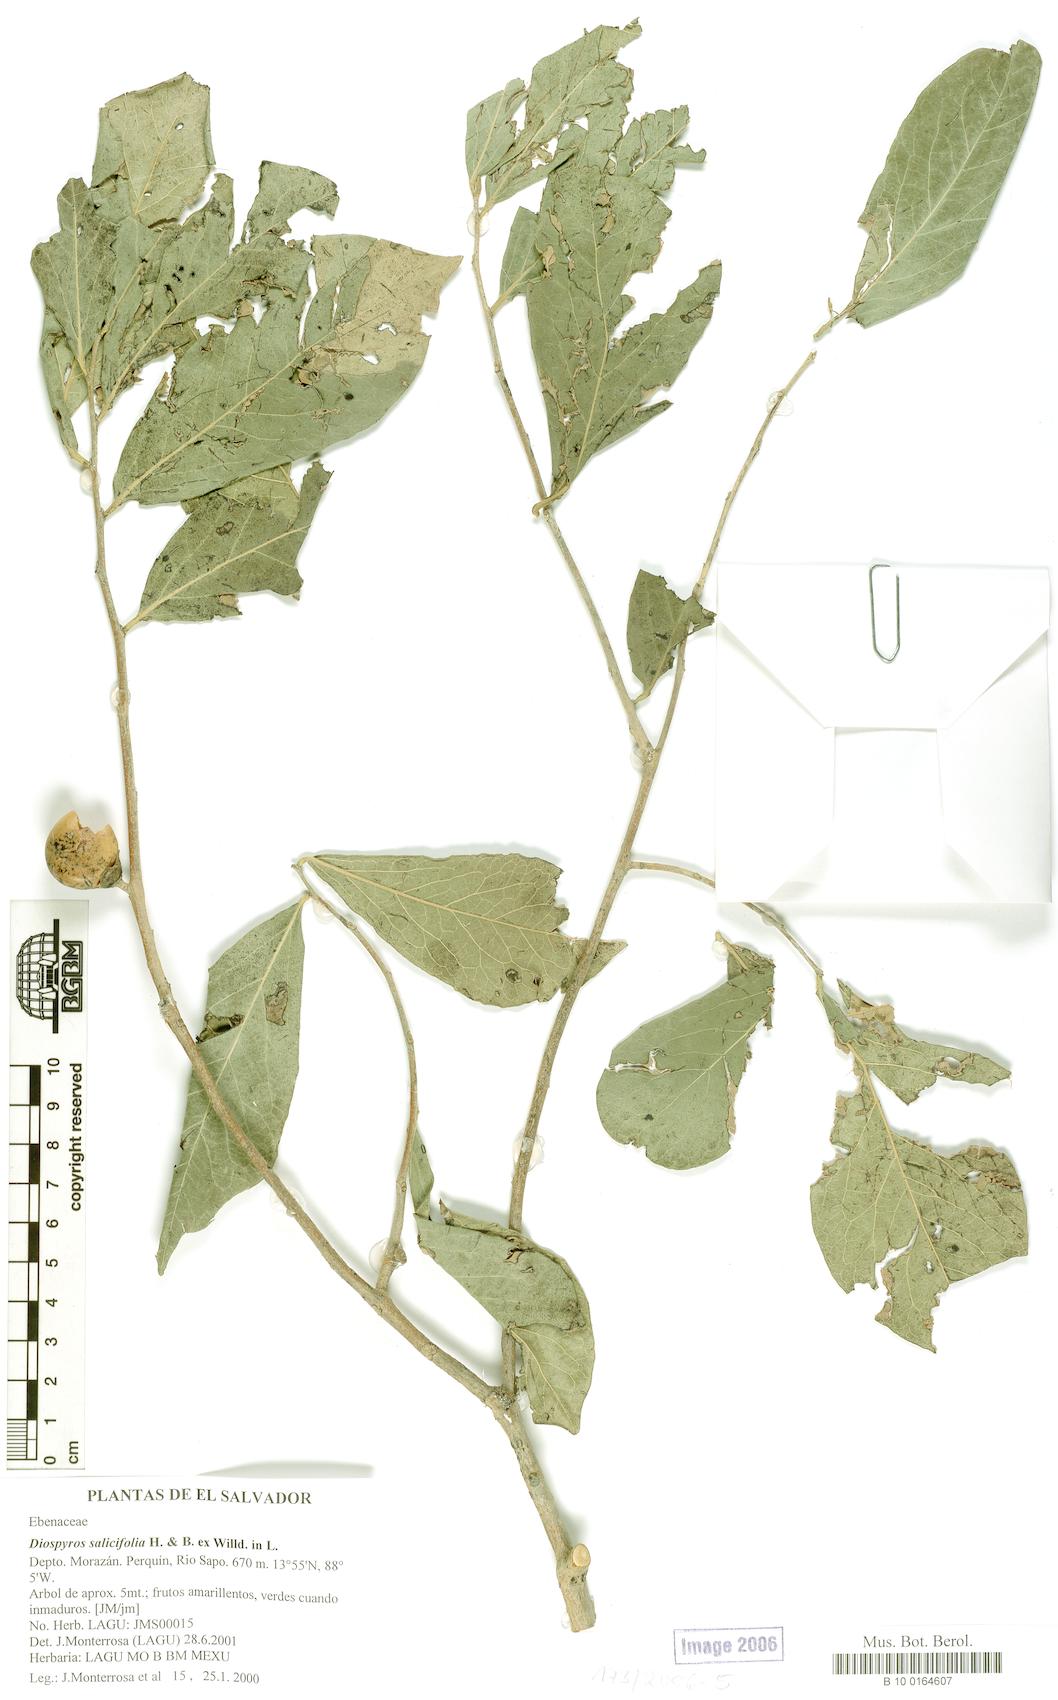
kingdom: Plantae
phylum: Tracheophyta
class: Magnoliopsida
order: Ericales
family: Ebenaceae
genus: Diospyros
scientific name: Diospyros salicifolia
